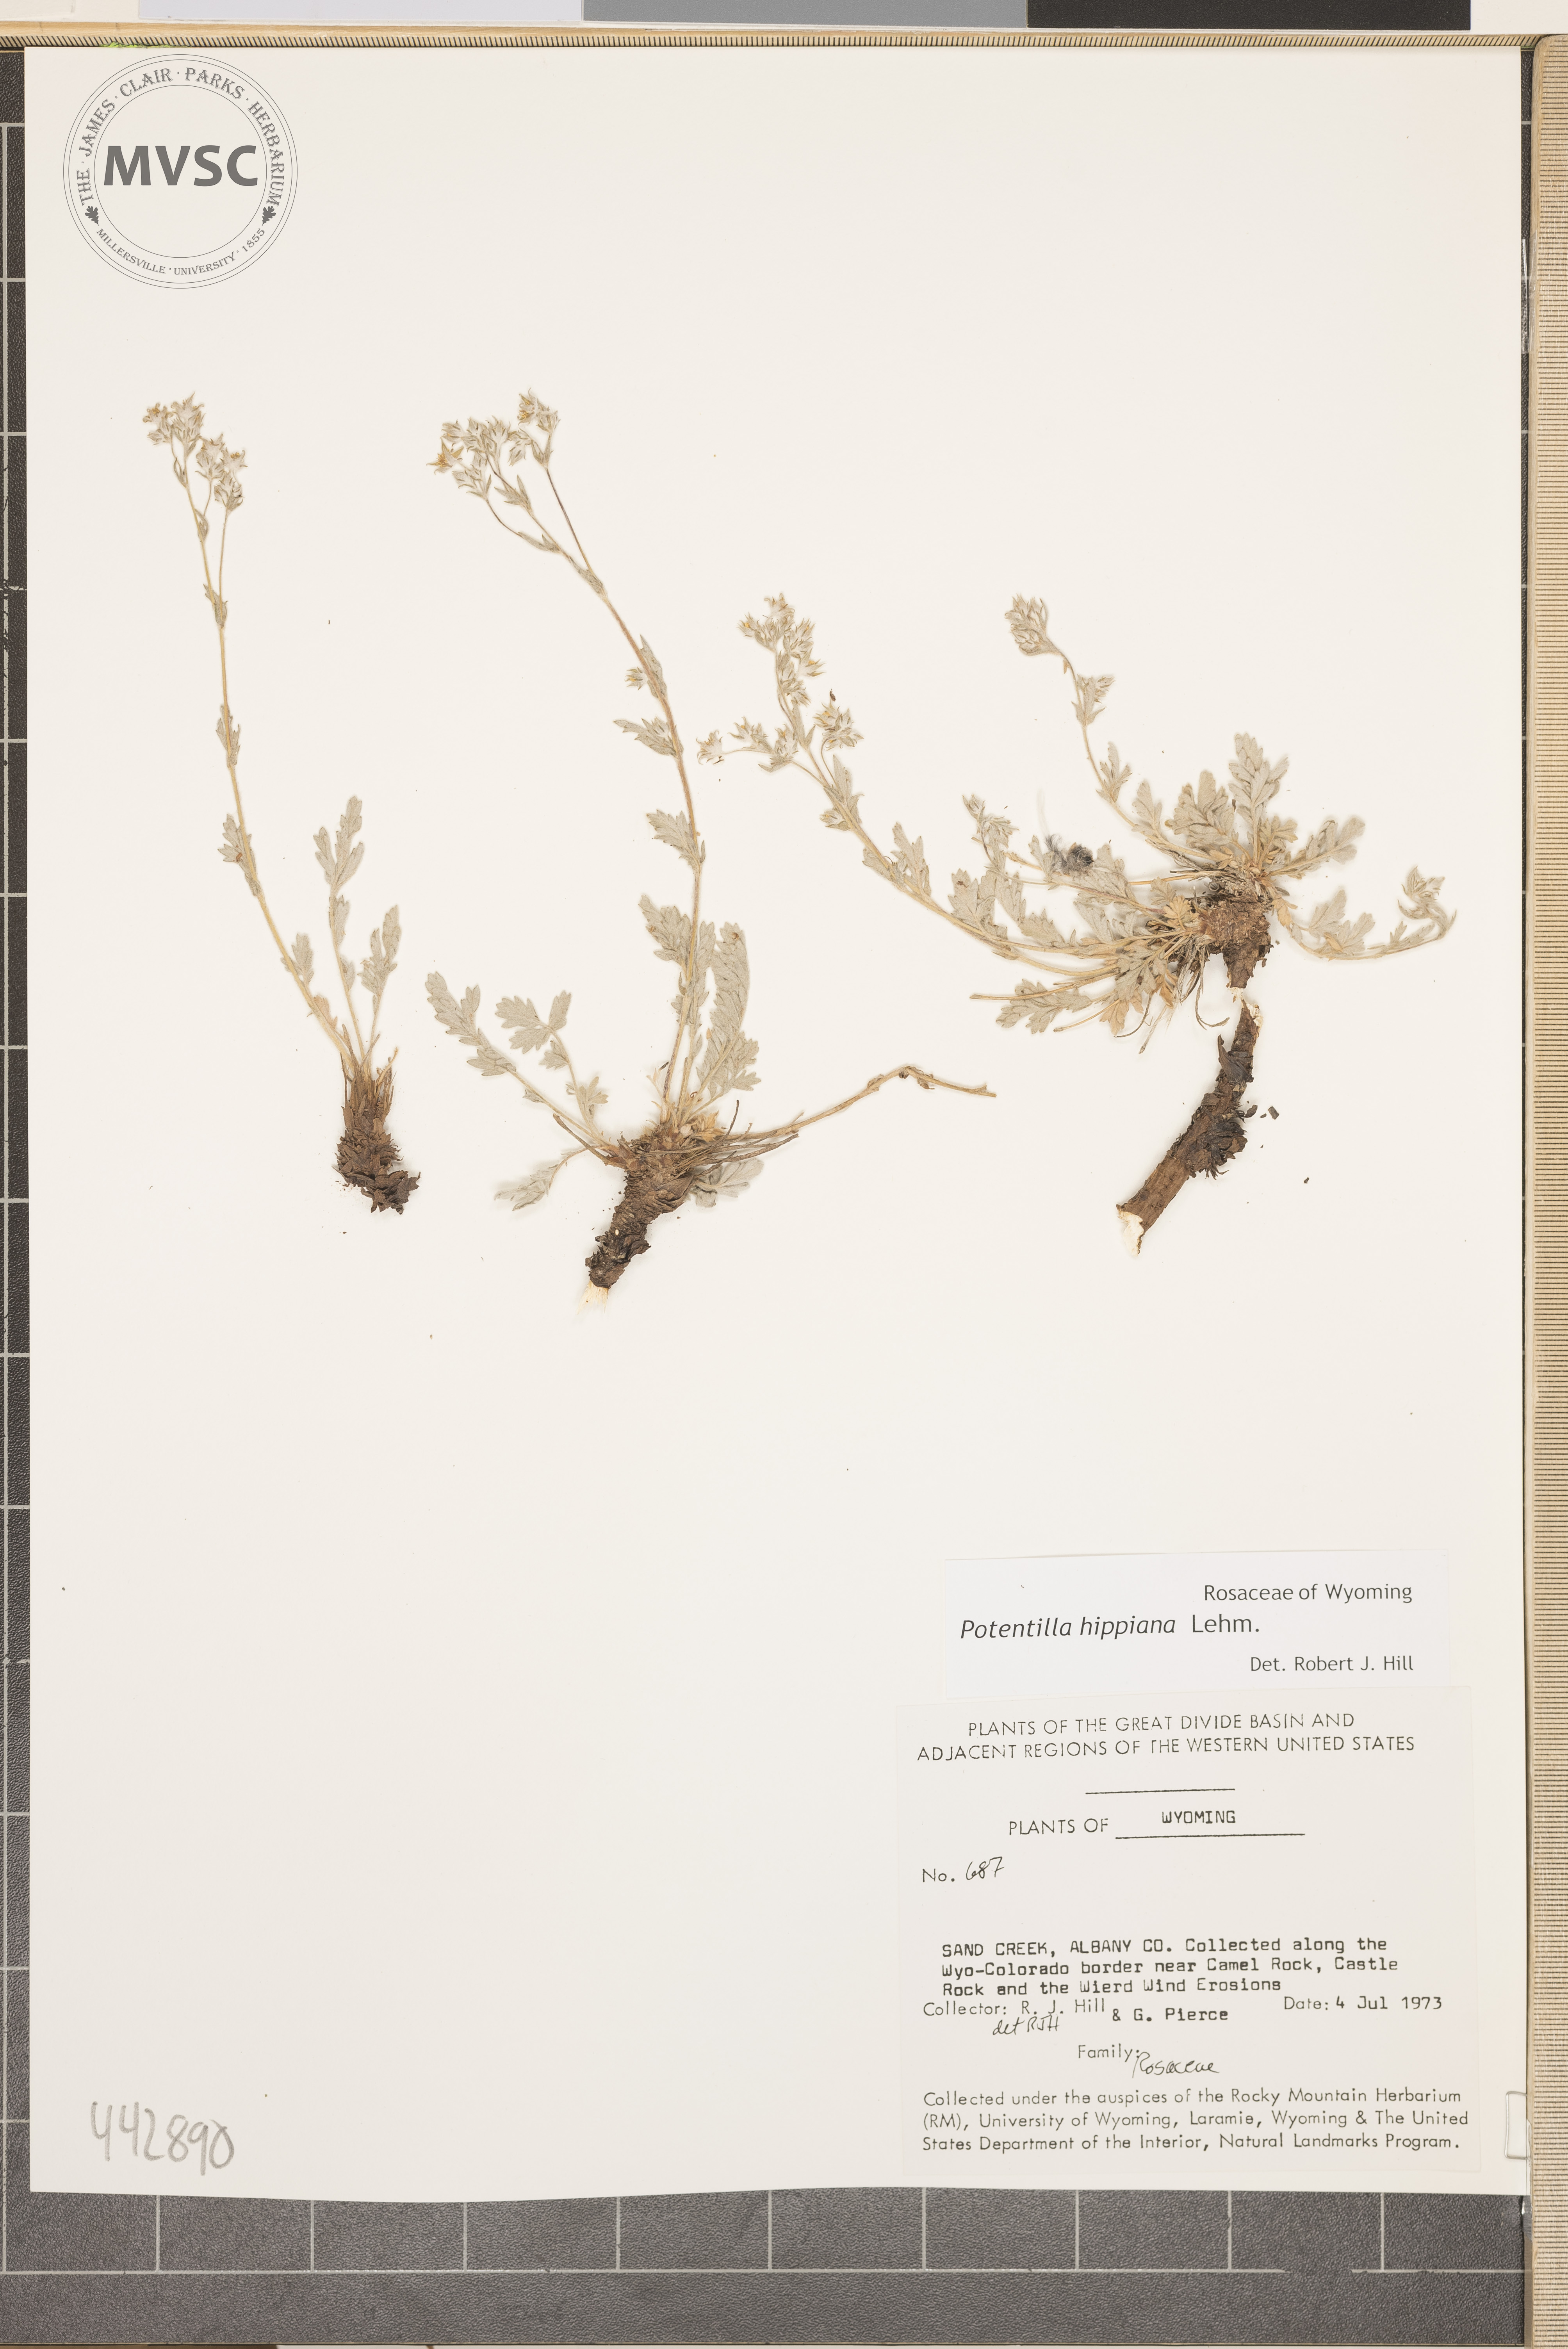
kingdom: Plantae
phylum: Tracheophyta
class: Magnoliopsida
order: Rosales
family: Rosaceae
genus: Potentilla
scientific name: Potentilla hippiana
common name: Woolly cinquefoil
